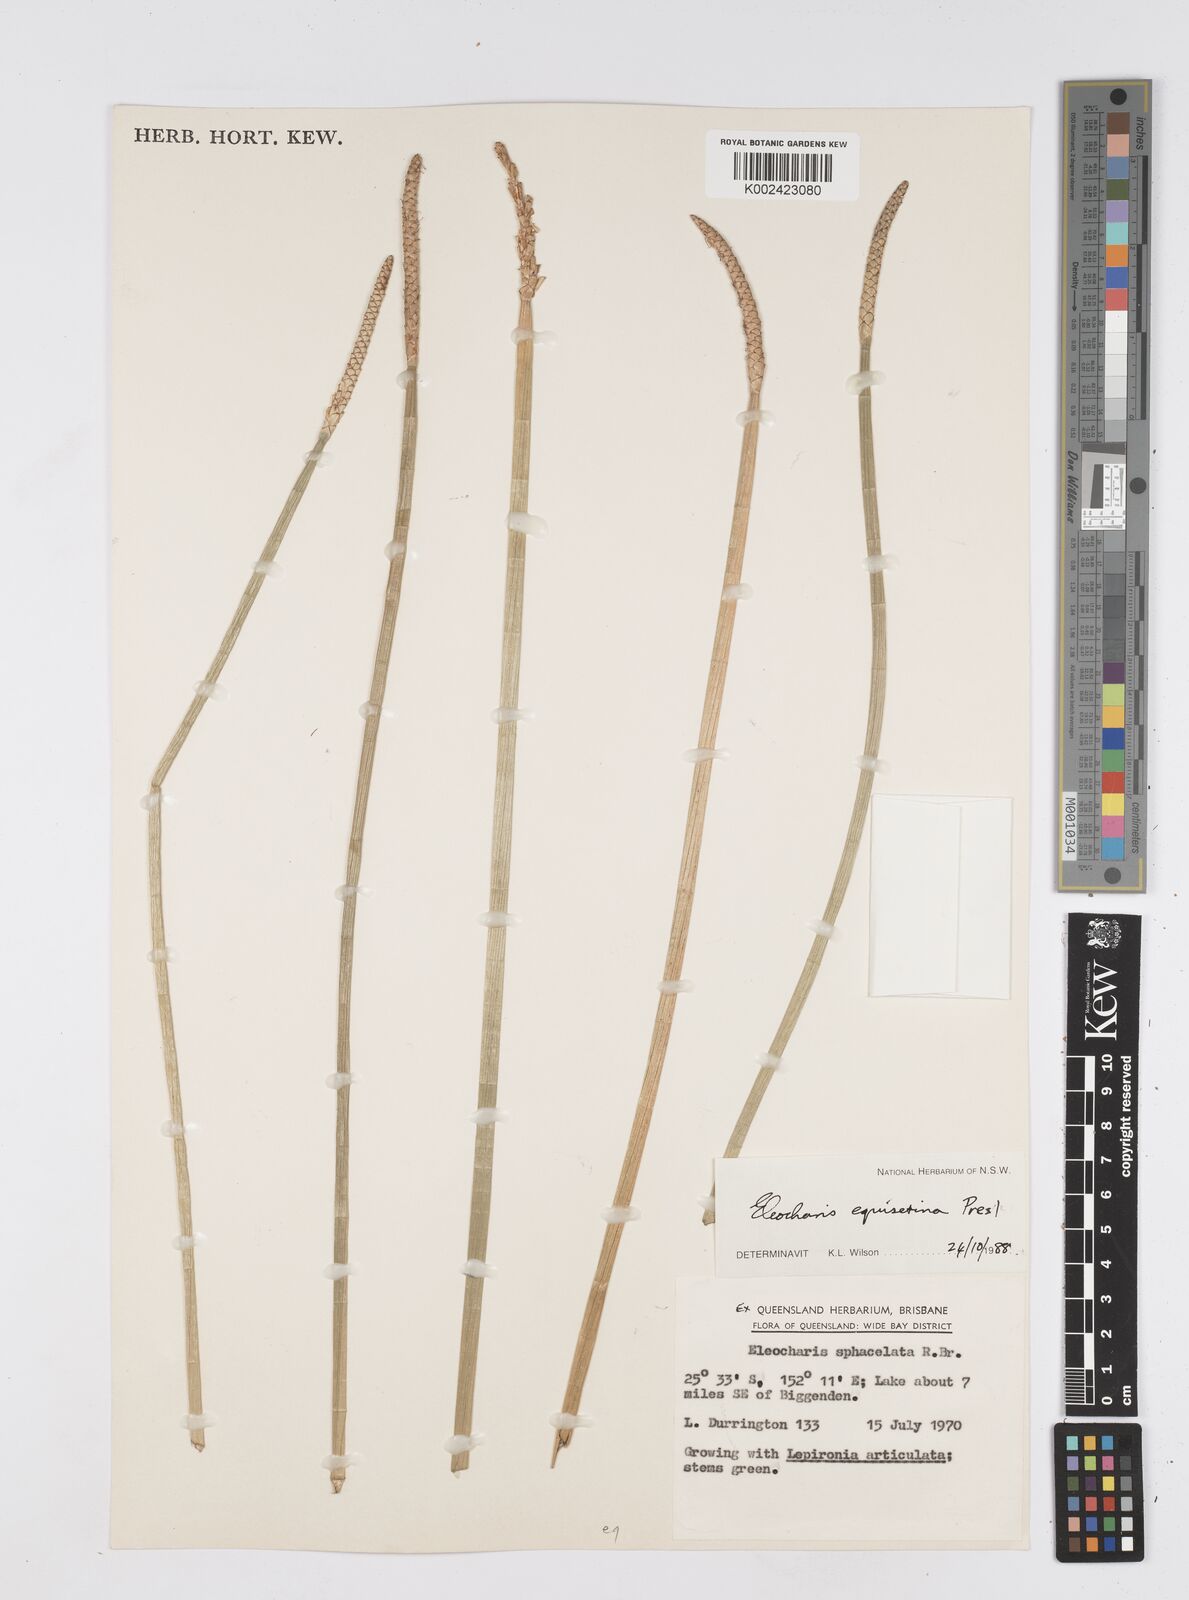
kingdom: Plantae
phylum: Tracheophyta
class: Liliopsida
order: Poales
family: Cyperaceae
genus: Eleocharis
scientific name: Eleocharis dulcis
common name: Chinese water chestnut
